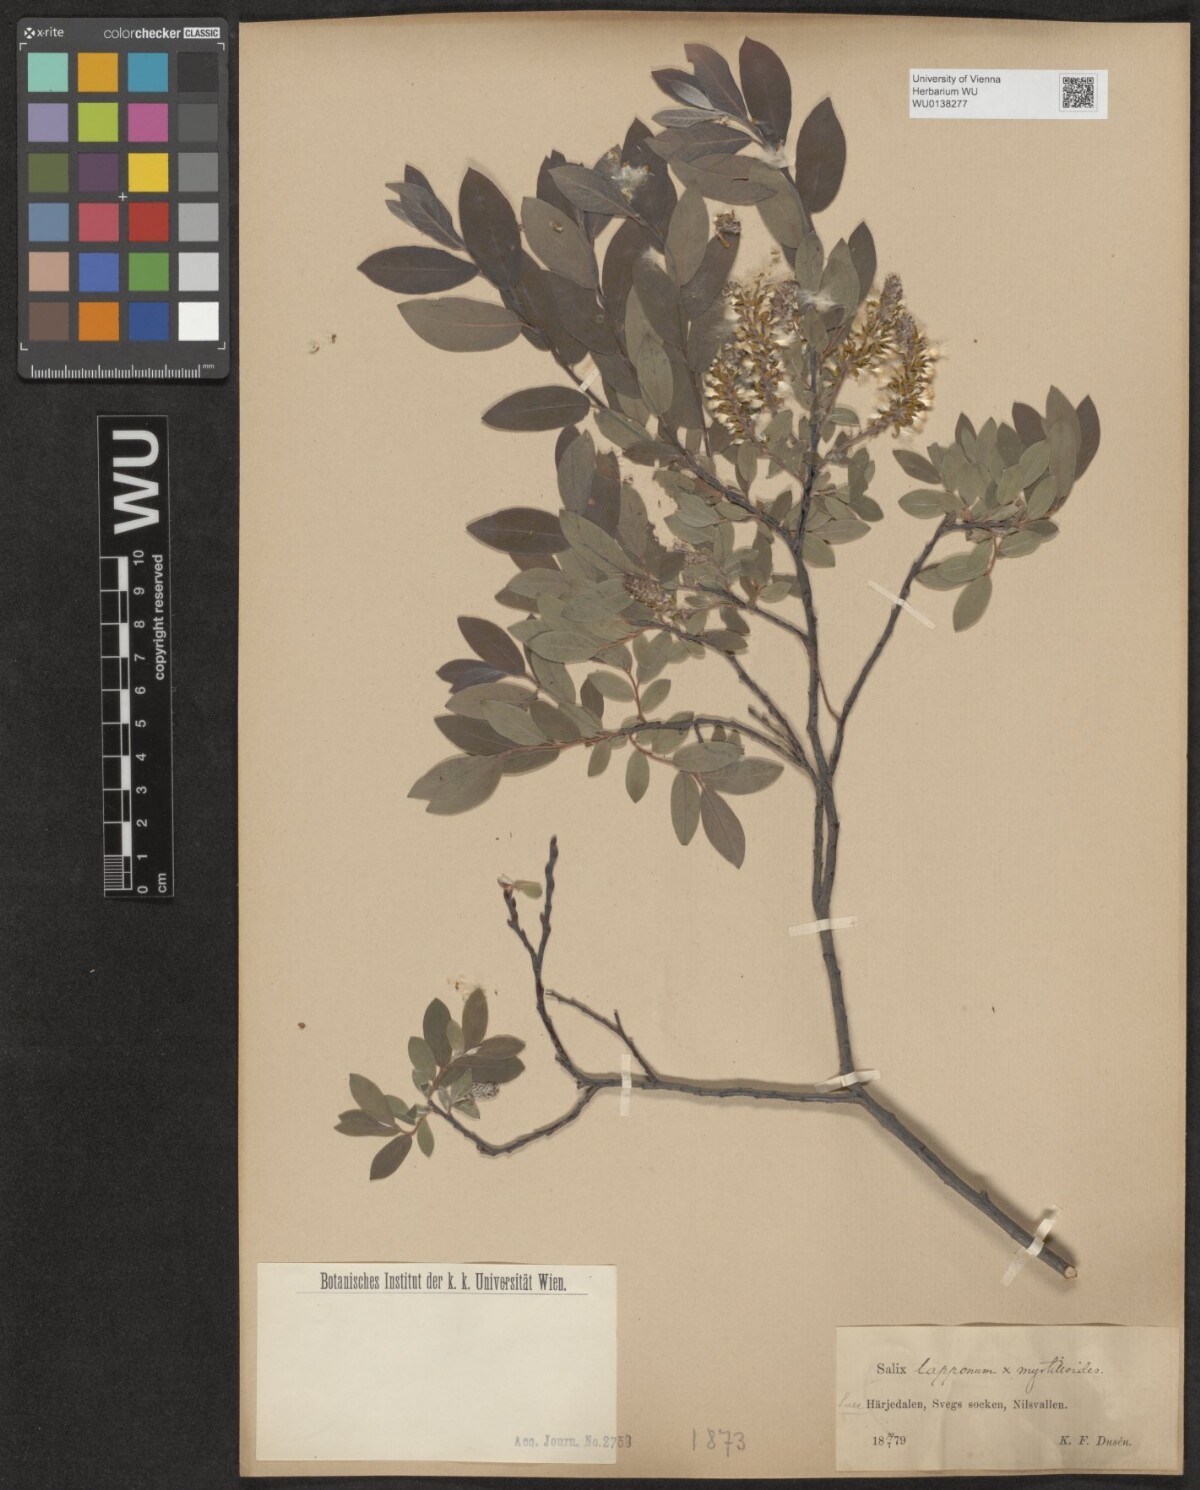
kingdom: Plantae
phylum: Tracheophyta
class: Magnoliopsida
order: Malpighiales
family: Salicaceae
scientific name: Salicaceae
